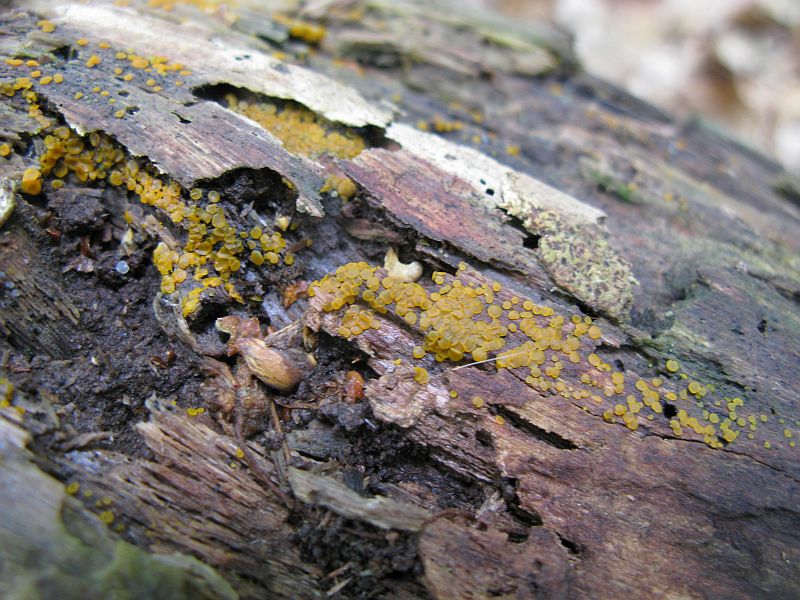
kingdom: Fungi
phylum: Ascomycota
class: Orbiliomycetes
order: Orbiliales
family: Orbiliaceae
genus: Orbilia
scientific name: Orbilia xanthostigma
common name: krumsporet voksskive
